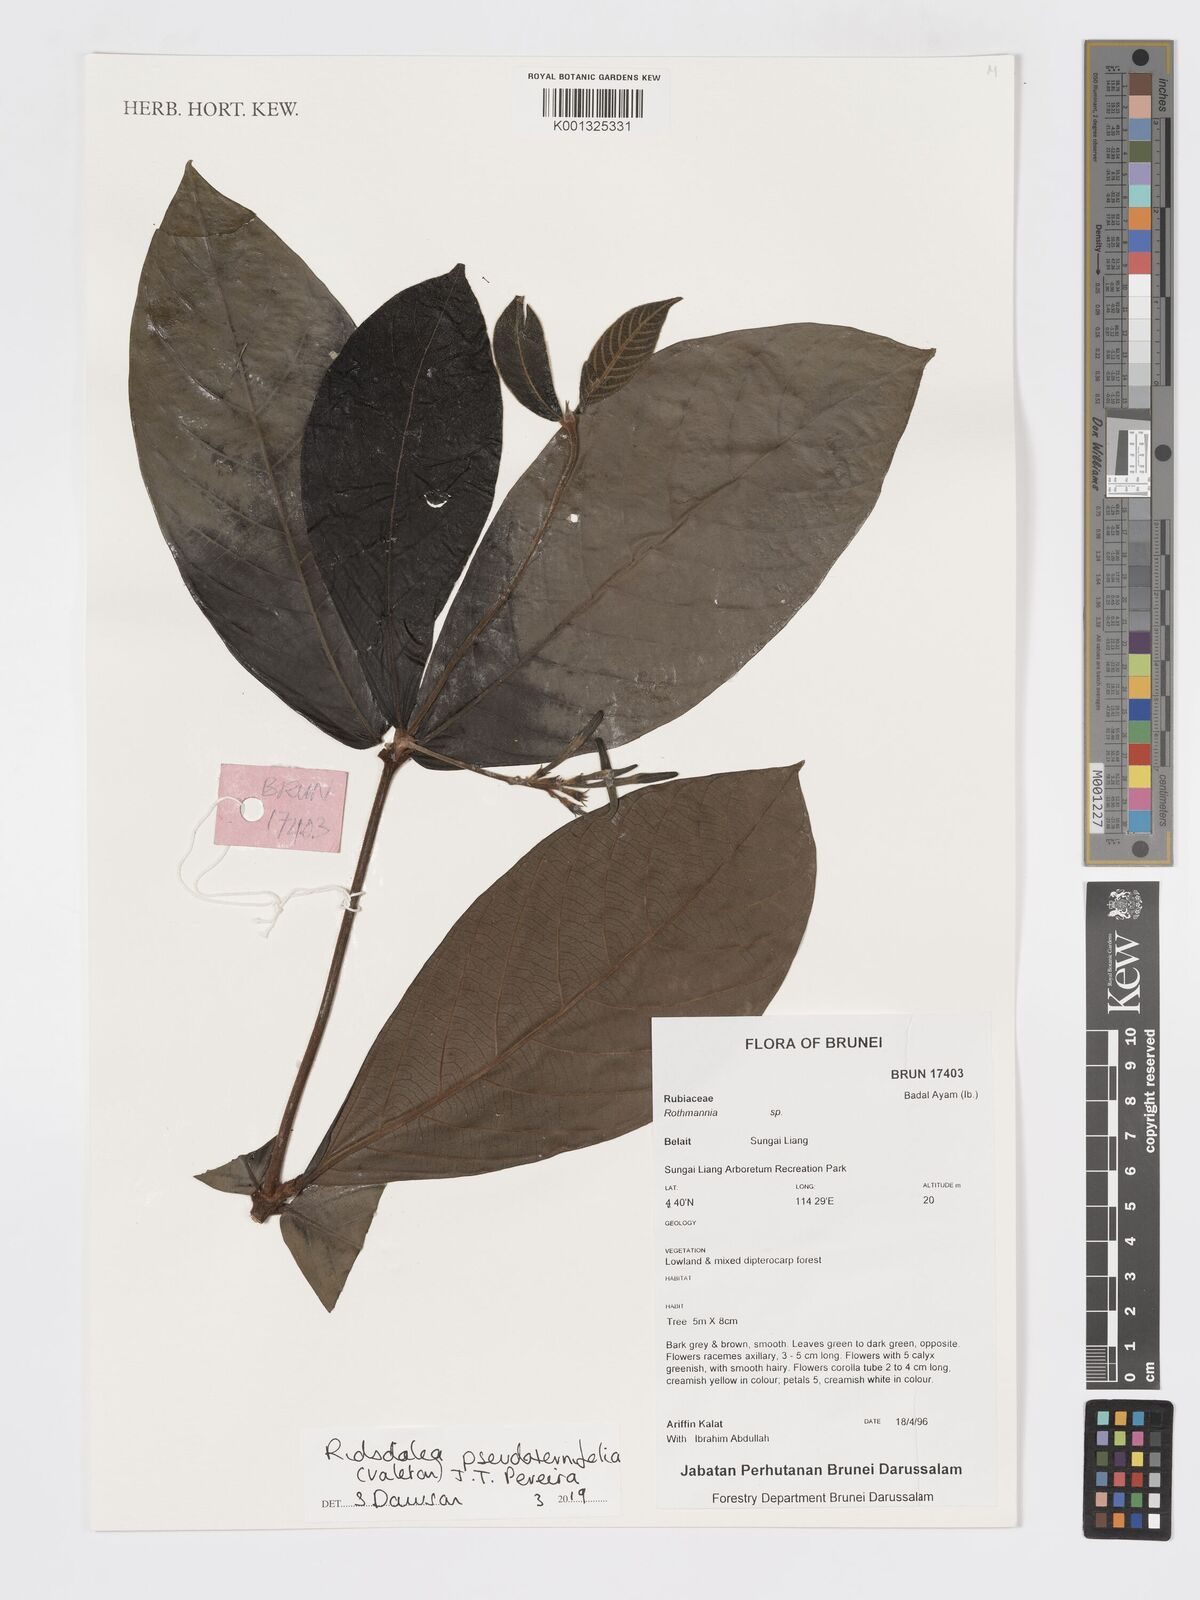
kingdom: Plantae
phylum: Tracheophyta
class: Magnoliopsida
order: Gentianales
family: Rubiaceae
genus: Ridsdalea
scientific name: Ridsdalea pseudoternifolia
